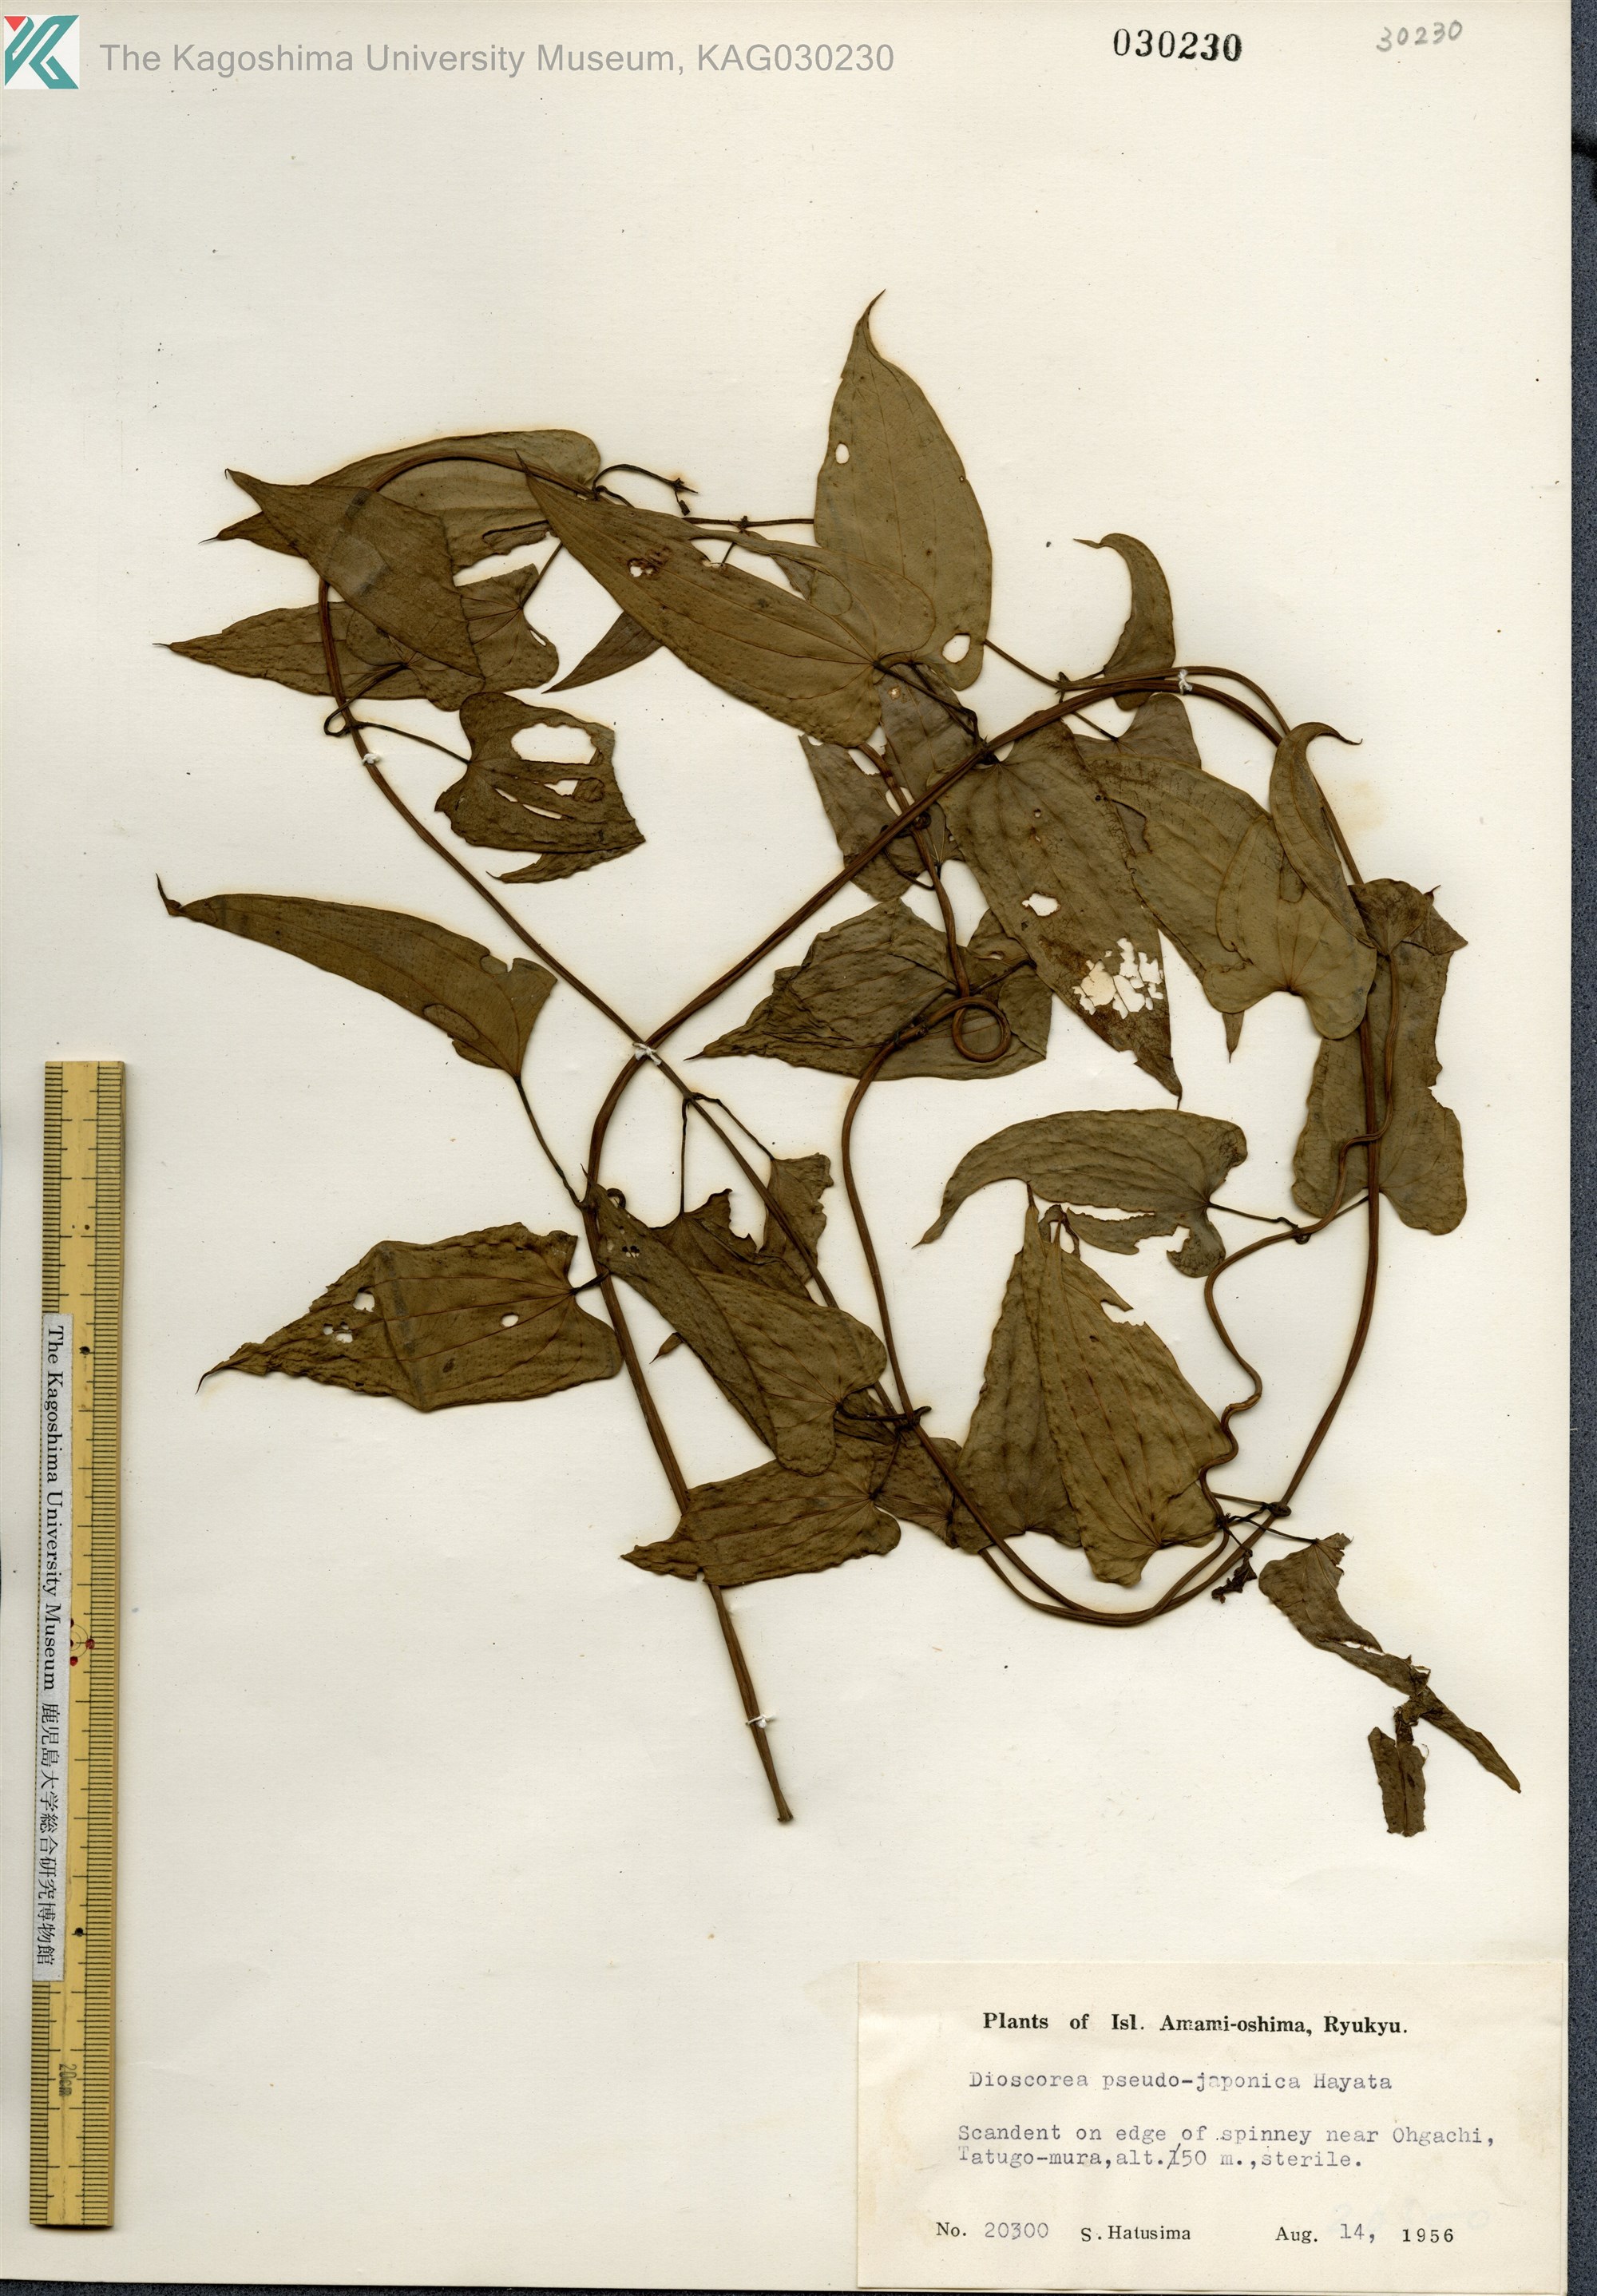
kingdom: Plantae
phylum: Tracheophyta
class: Liliopsida
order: Dioscoreales
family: Dioscoreaceae
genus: Dioscorea
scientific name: Dioscorea pseudojaponica
